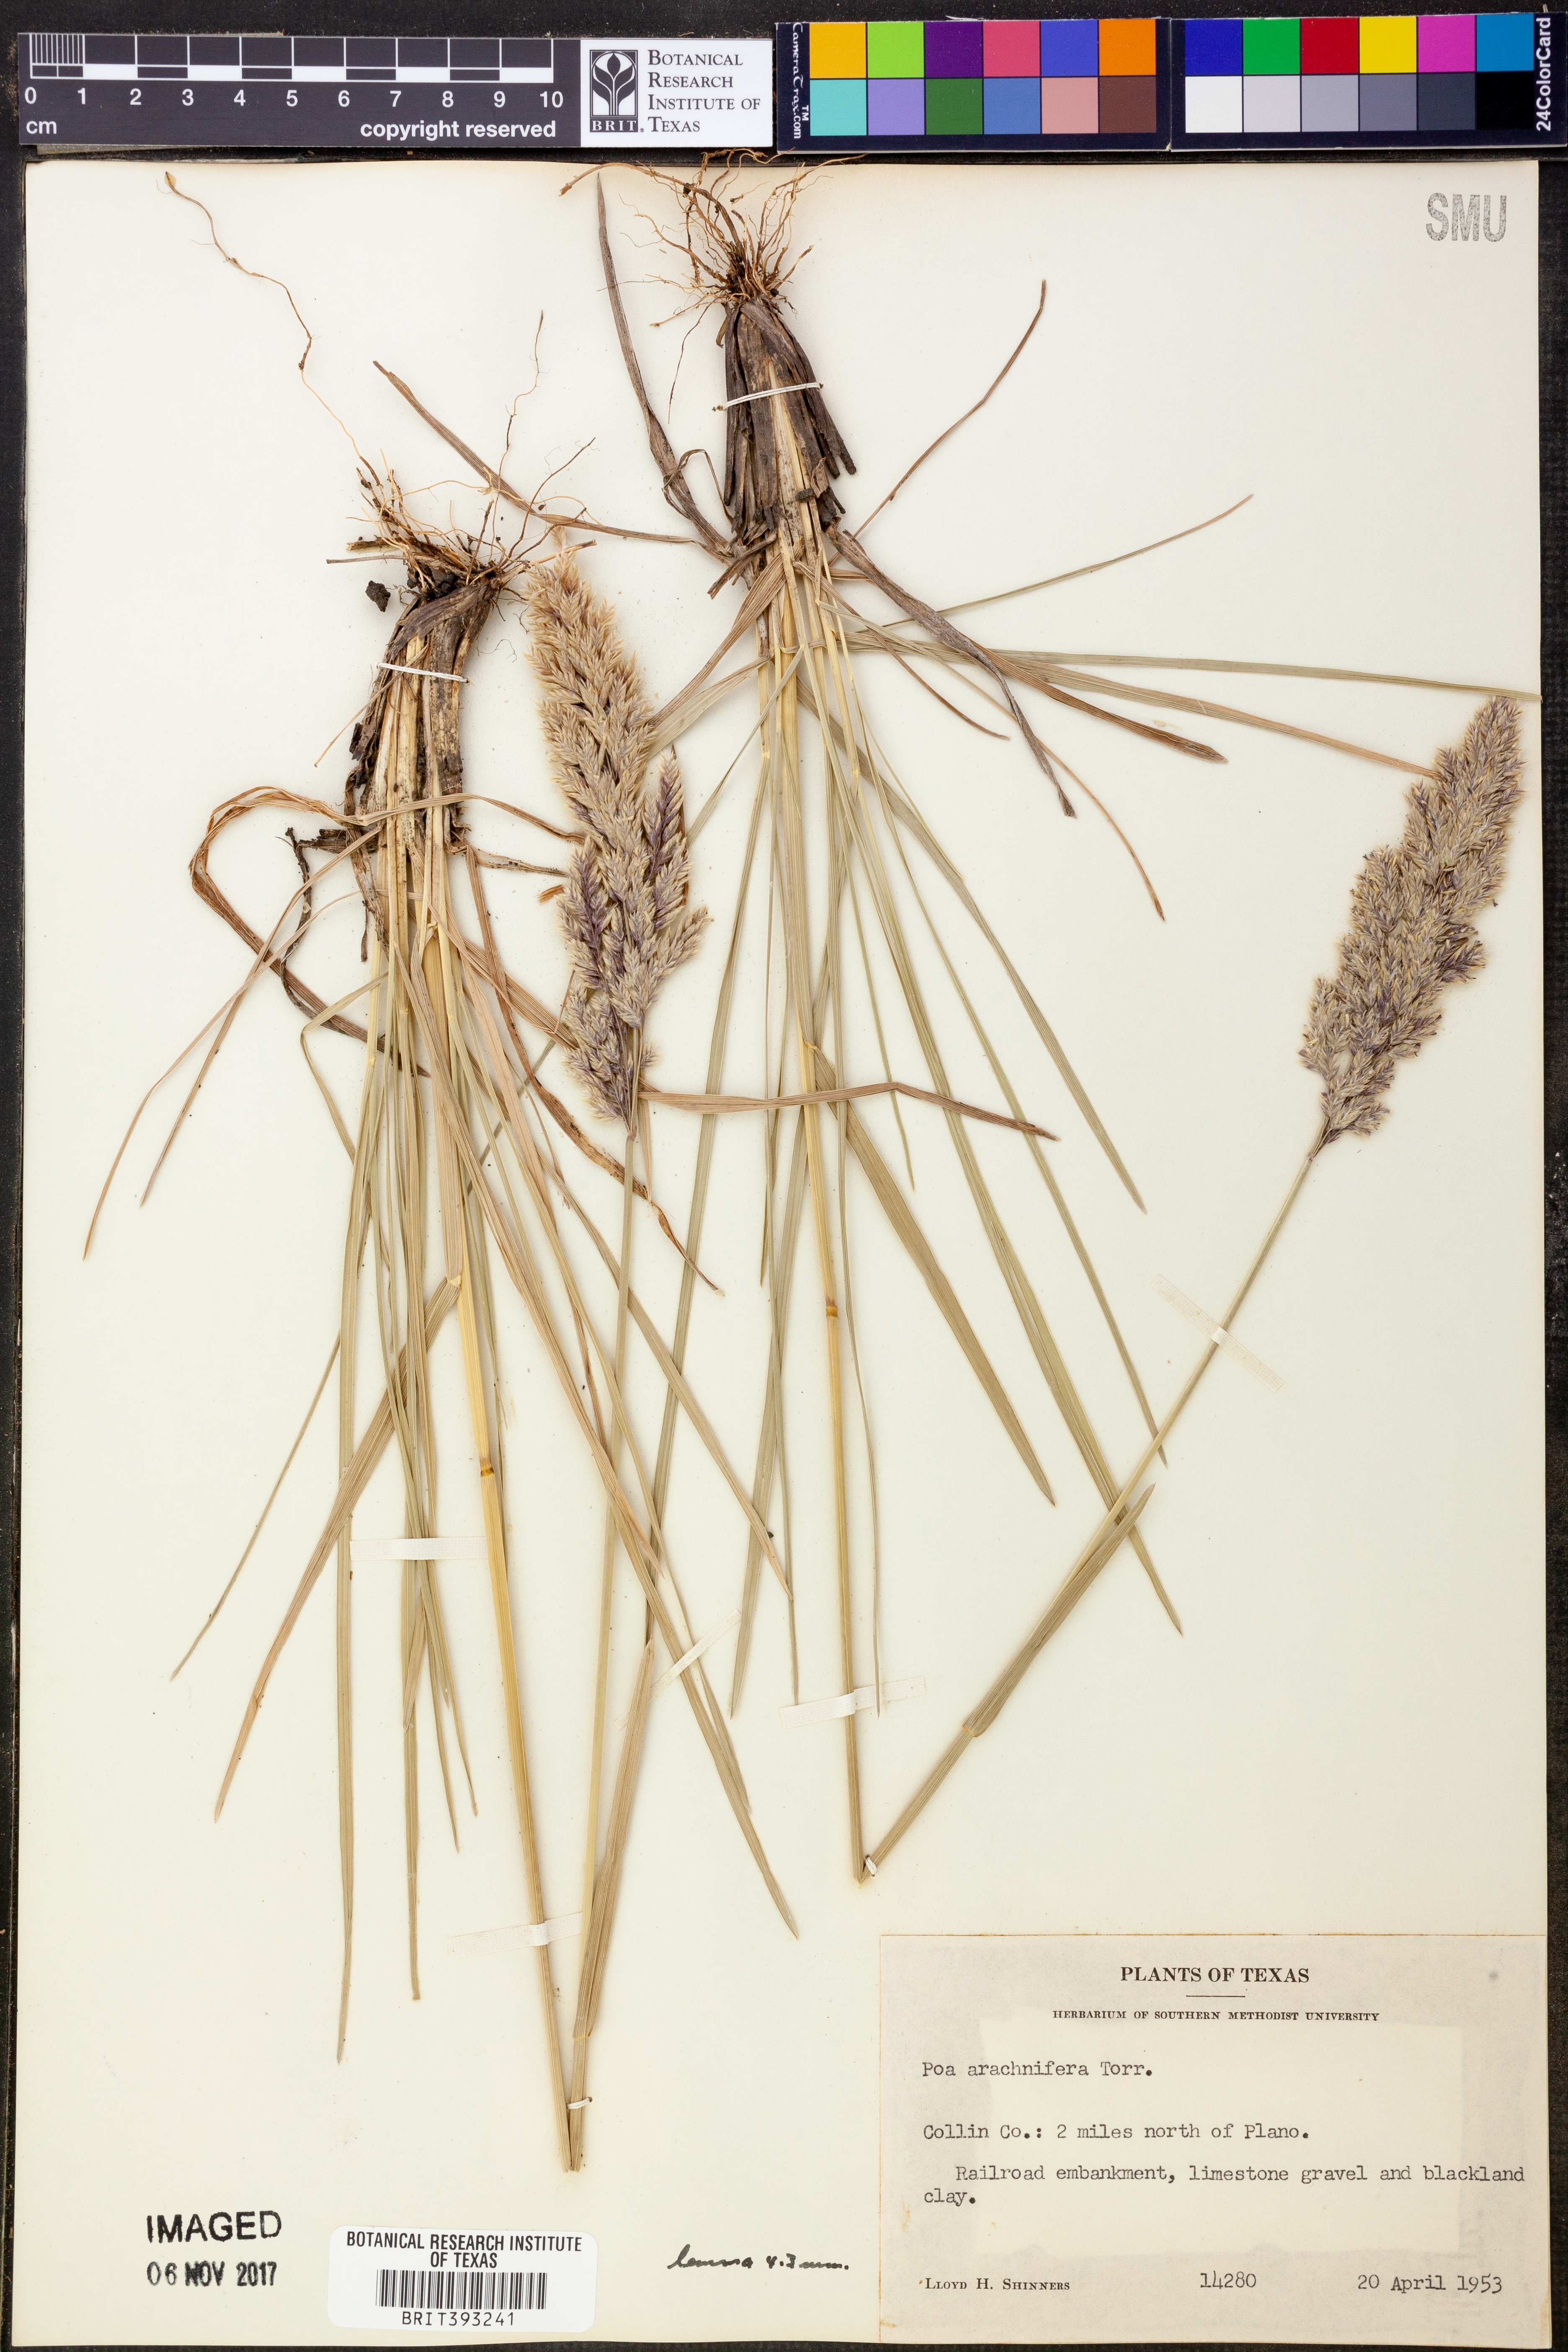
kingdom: Plantae
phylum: Tracheophyta
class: Liliopsida
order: Poales
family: Poaceae
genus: Poa
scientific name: Poa arachnifera
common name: Texas bluegrass
